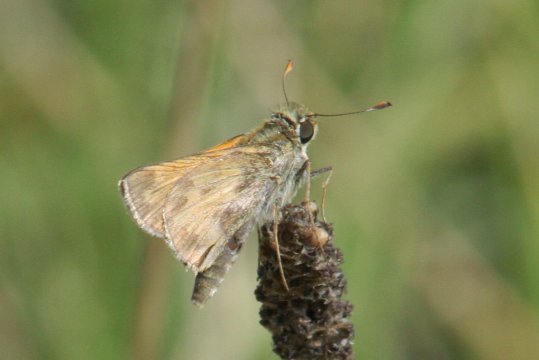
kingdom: Animalia
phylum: Arthropoda
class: Insecta
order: Lepidoptera
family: Hesperiidae
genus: Atalopedes
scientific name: Atalopedes campestris
